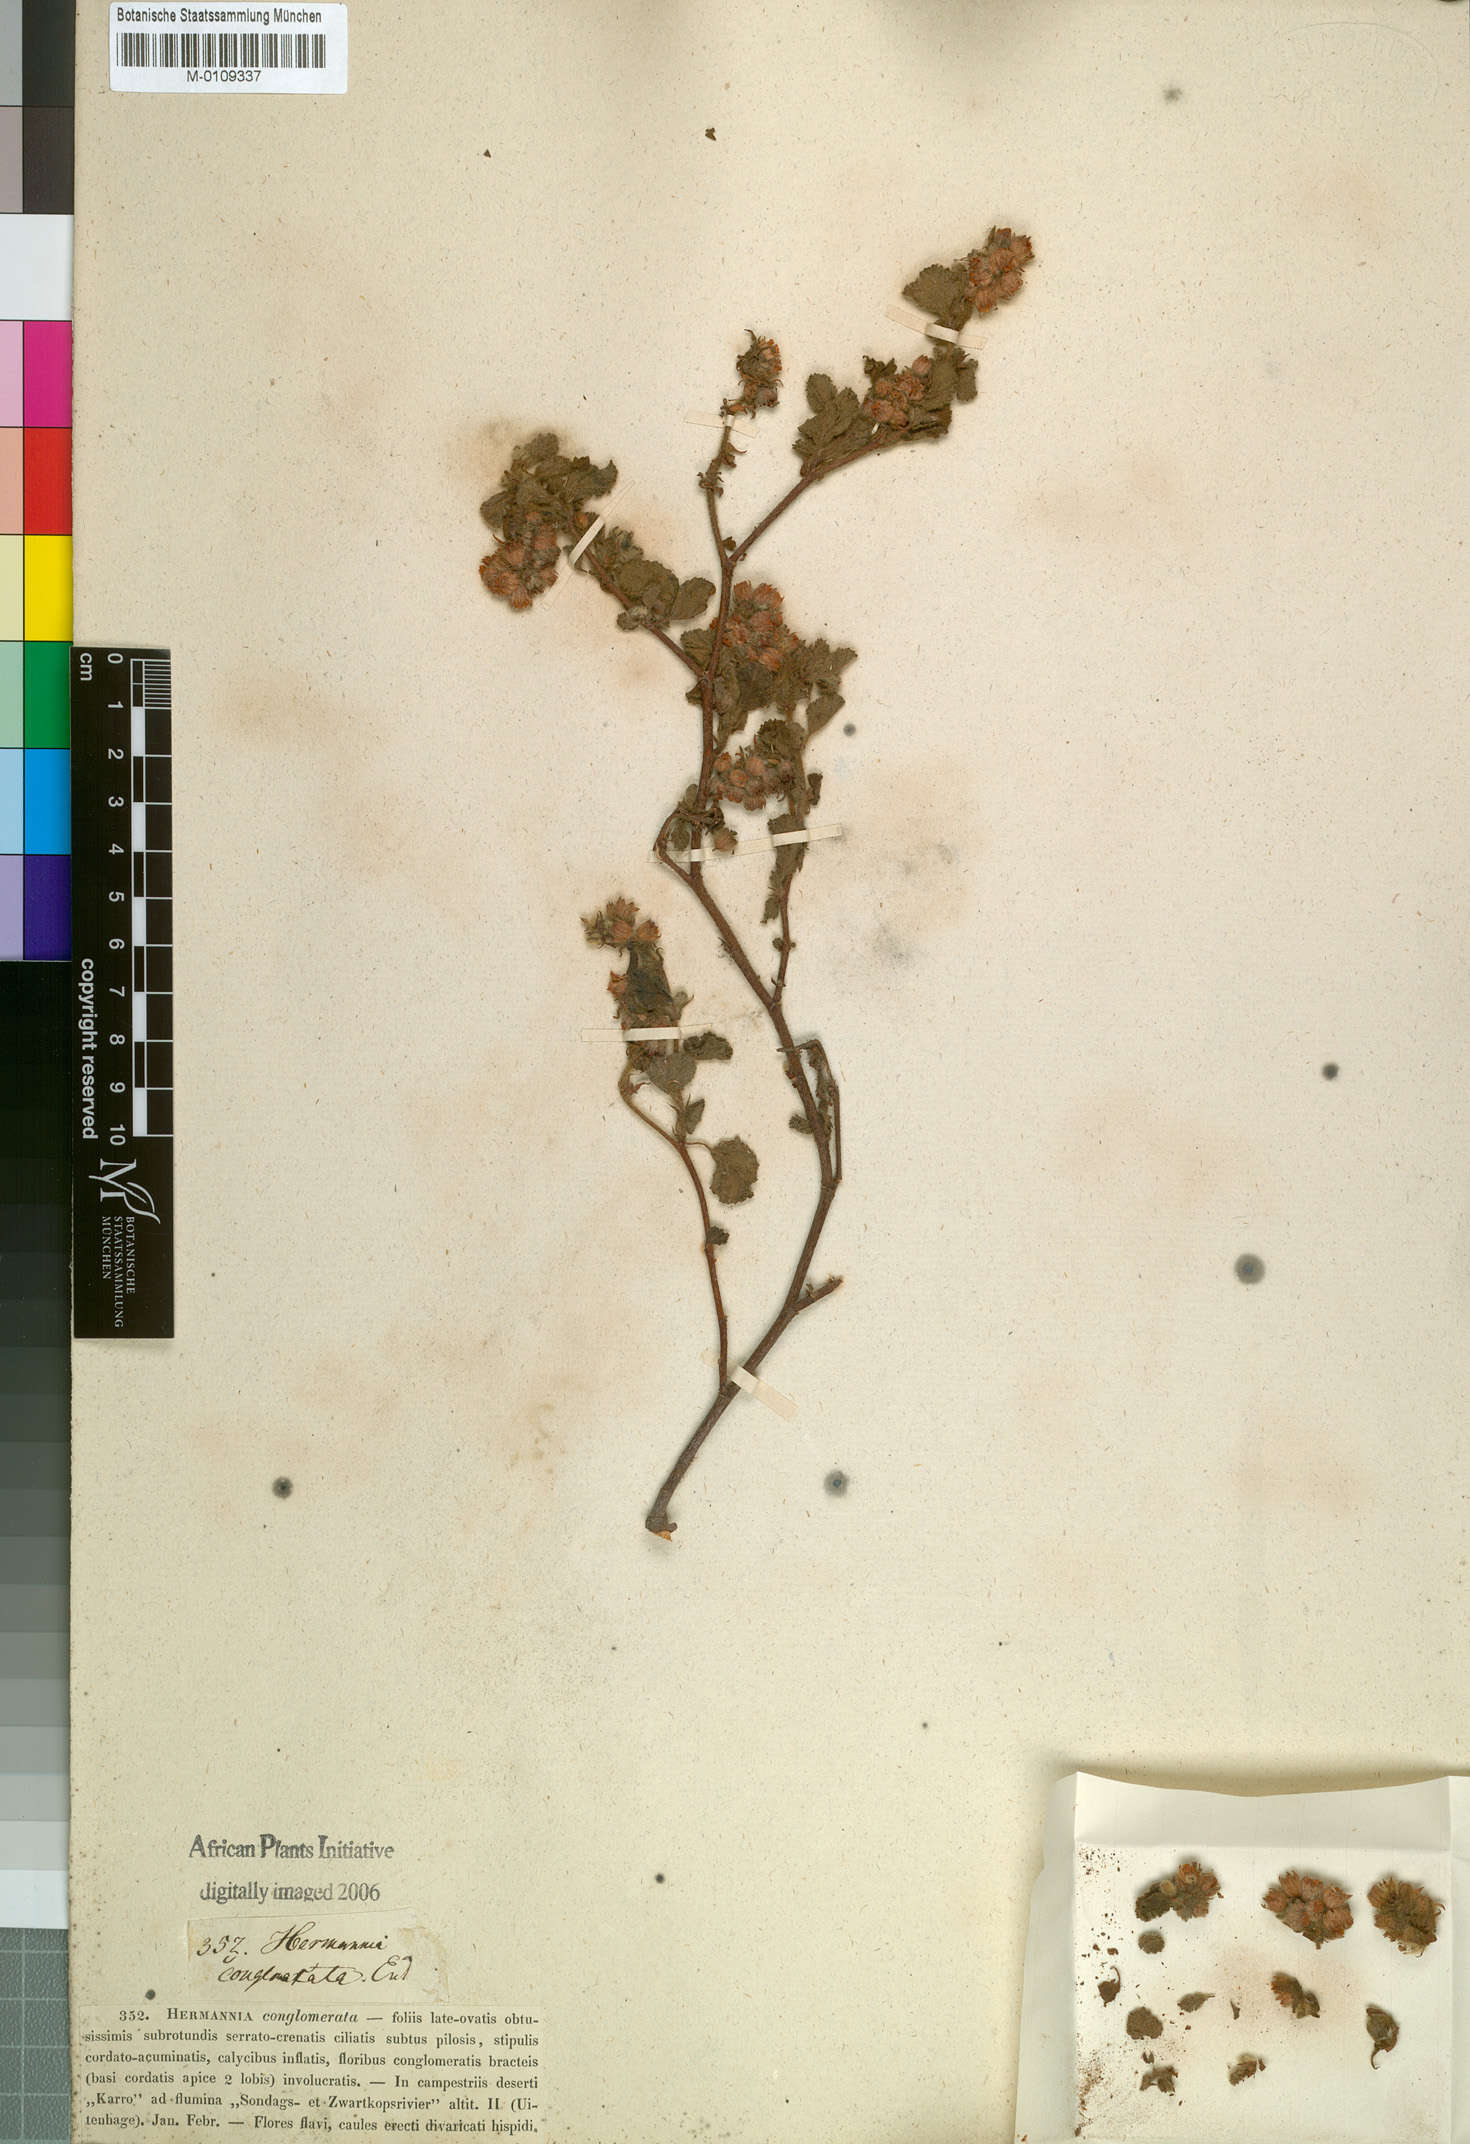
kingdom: Plantae
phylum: Tracheophyta
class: Magnoliopsida
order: Malvales
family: Malvaceae
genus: Hermannia
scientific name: Hermannia conglomerata
